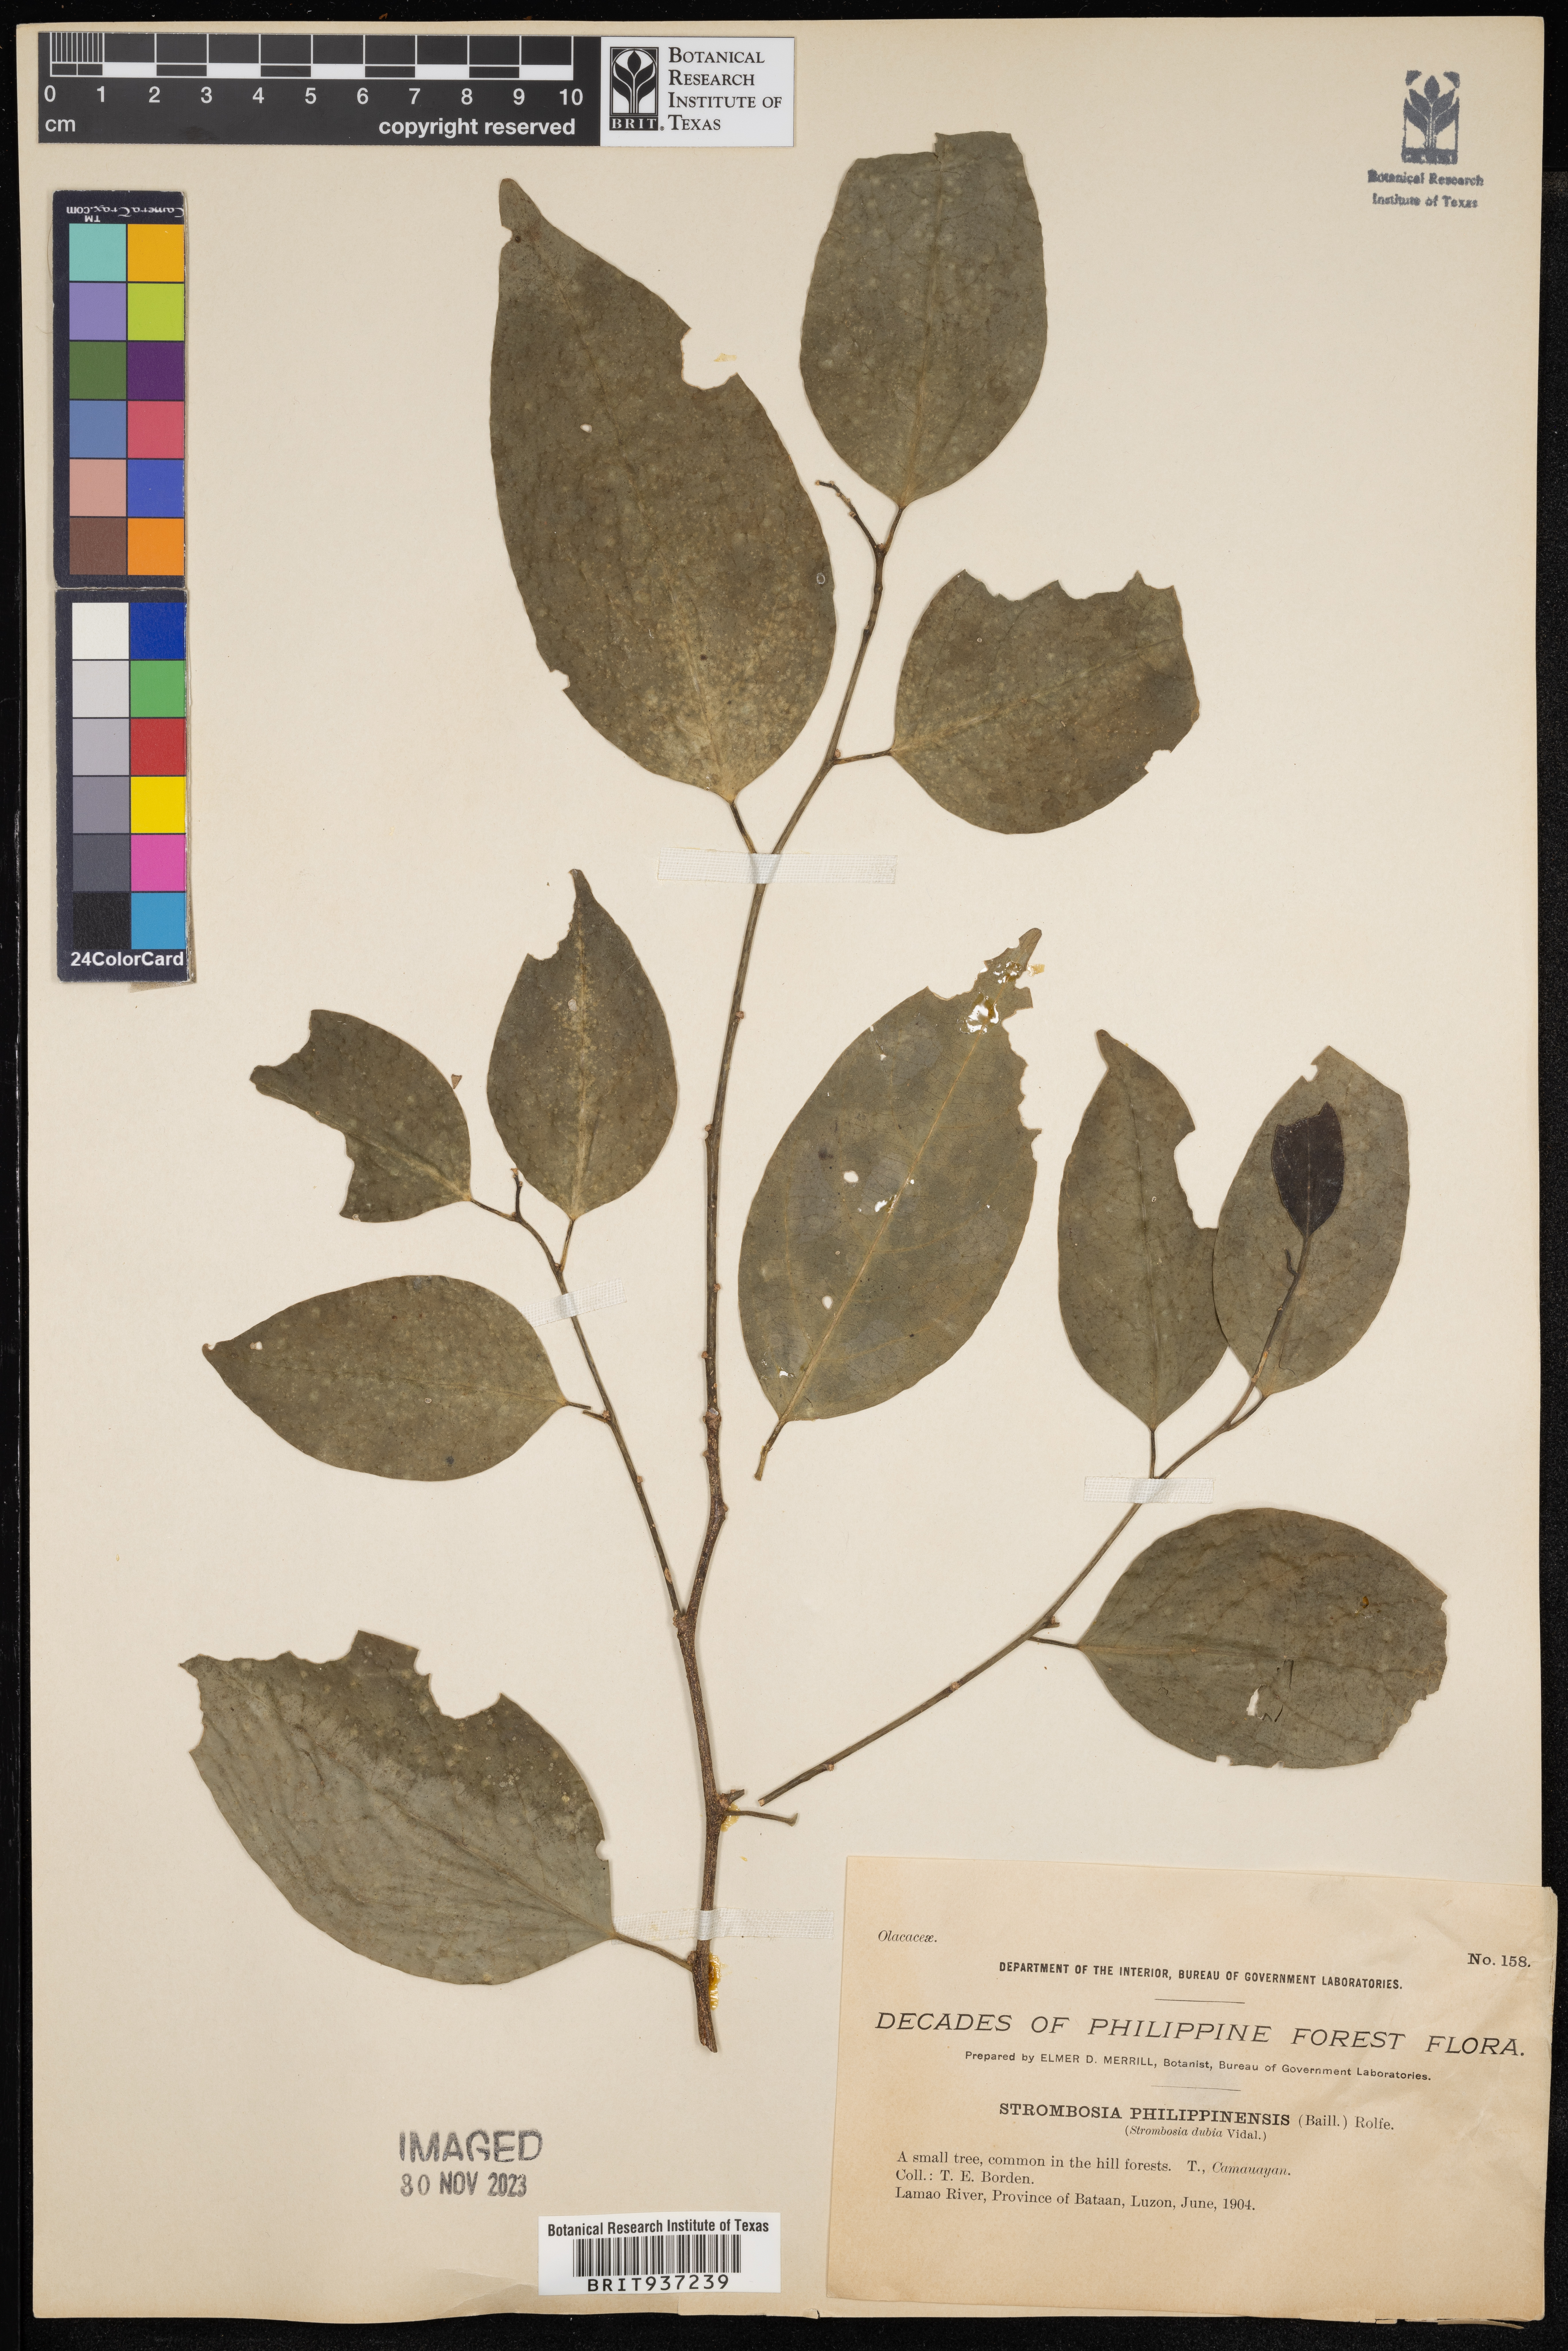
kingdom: Plantae
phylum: Tracheophyta
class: Magnoliopsida
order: Santalales
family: Strombosiaceae
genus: Strombosia
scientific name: Strombosia philippinensis
